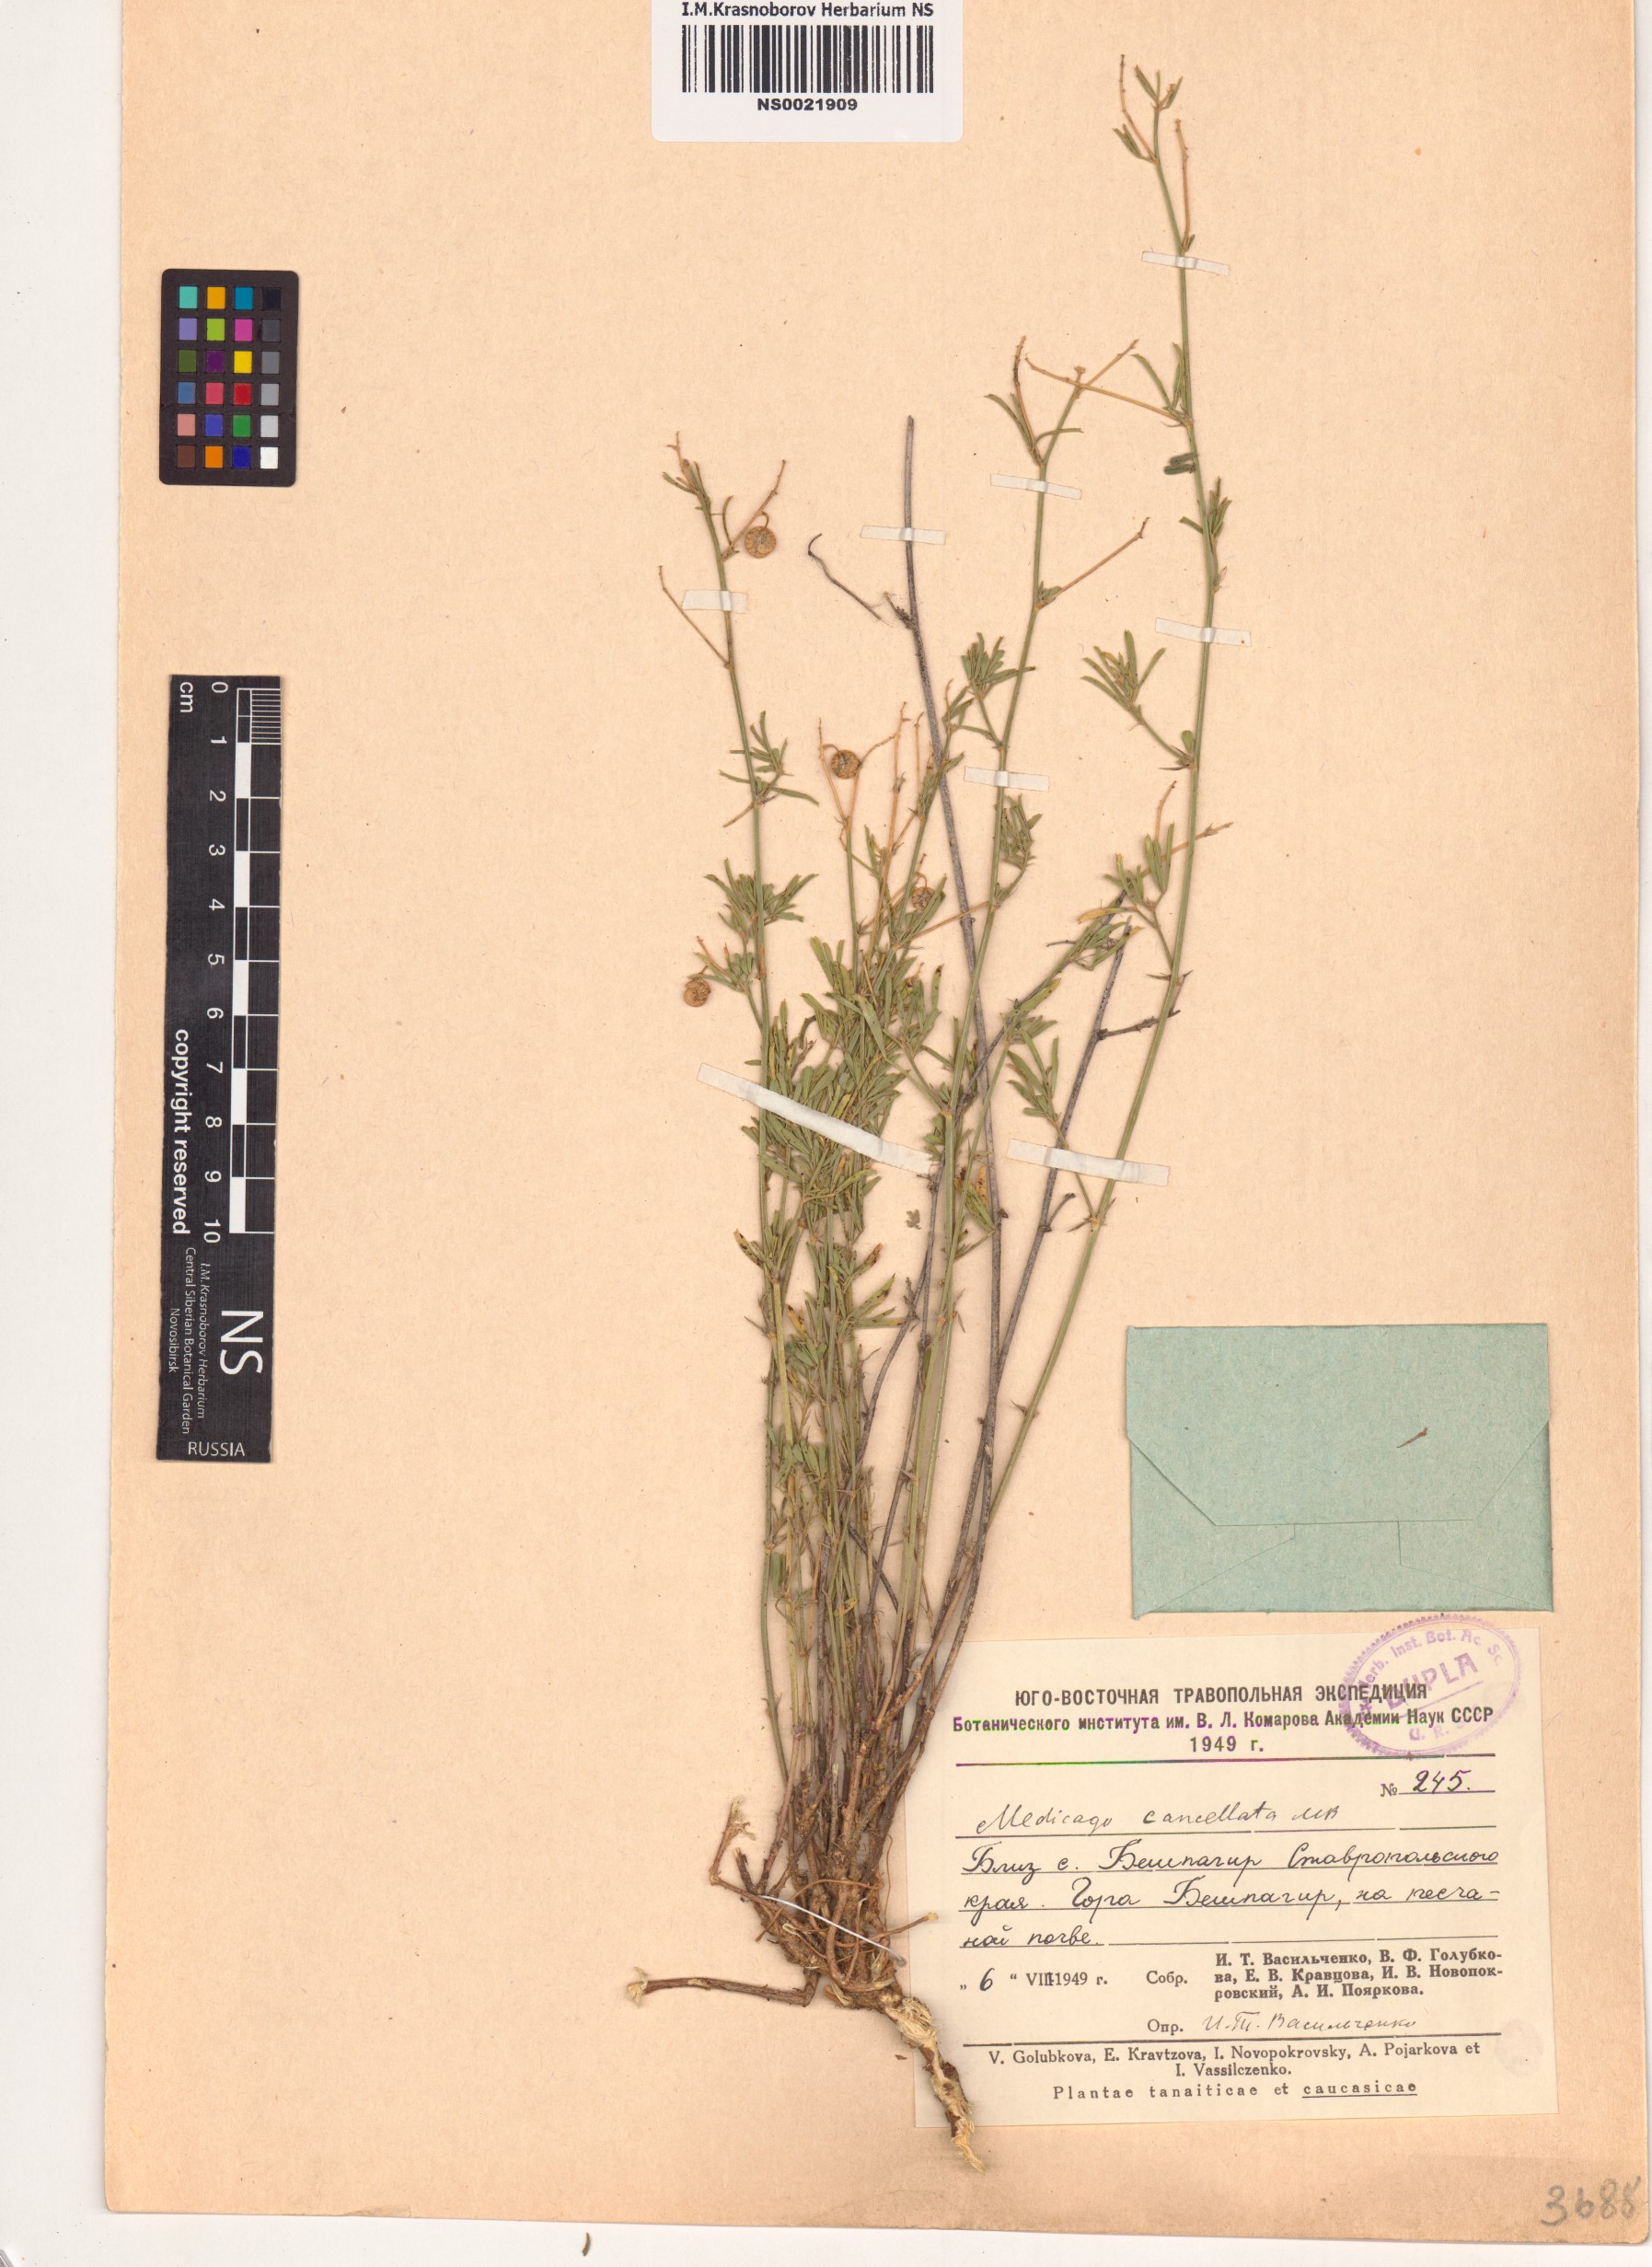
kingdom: Plantae
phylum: Tracheophyta
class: Magnoliopsida
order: Fabales
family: Fabaceae
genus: Medicago
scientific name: Medicago cancellata
